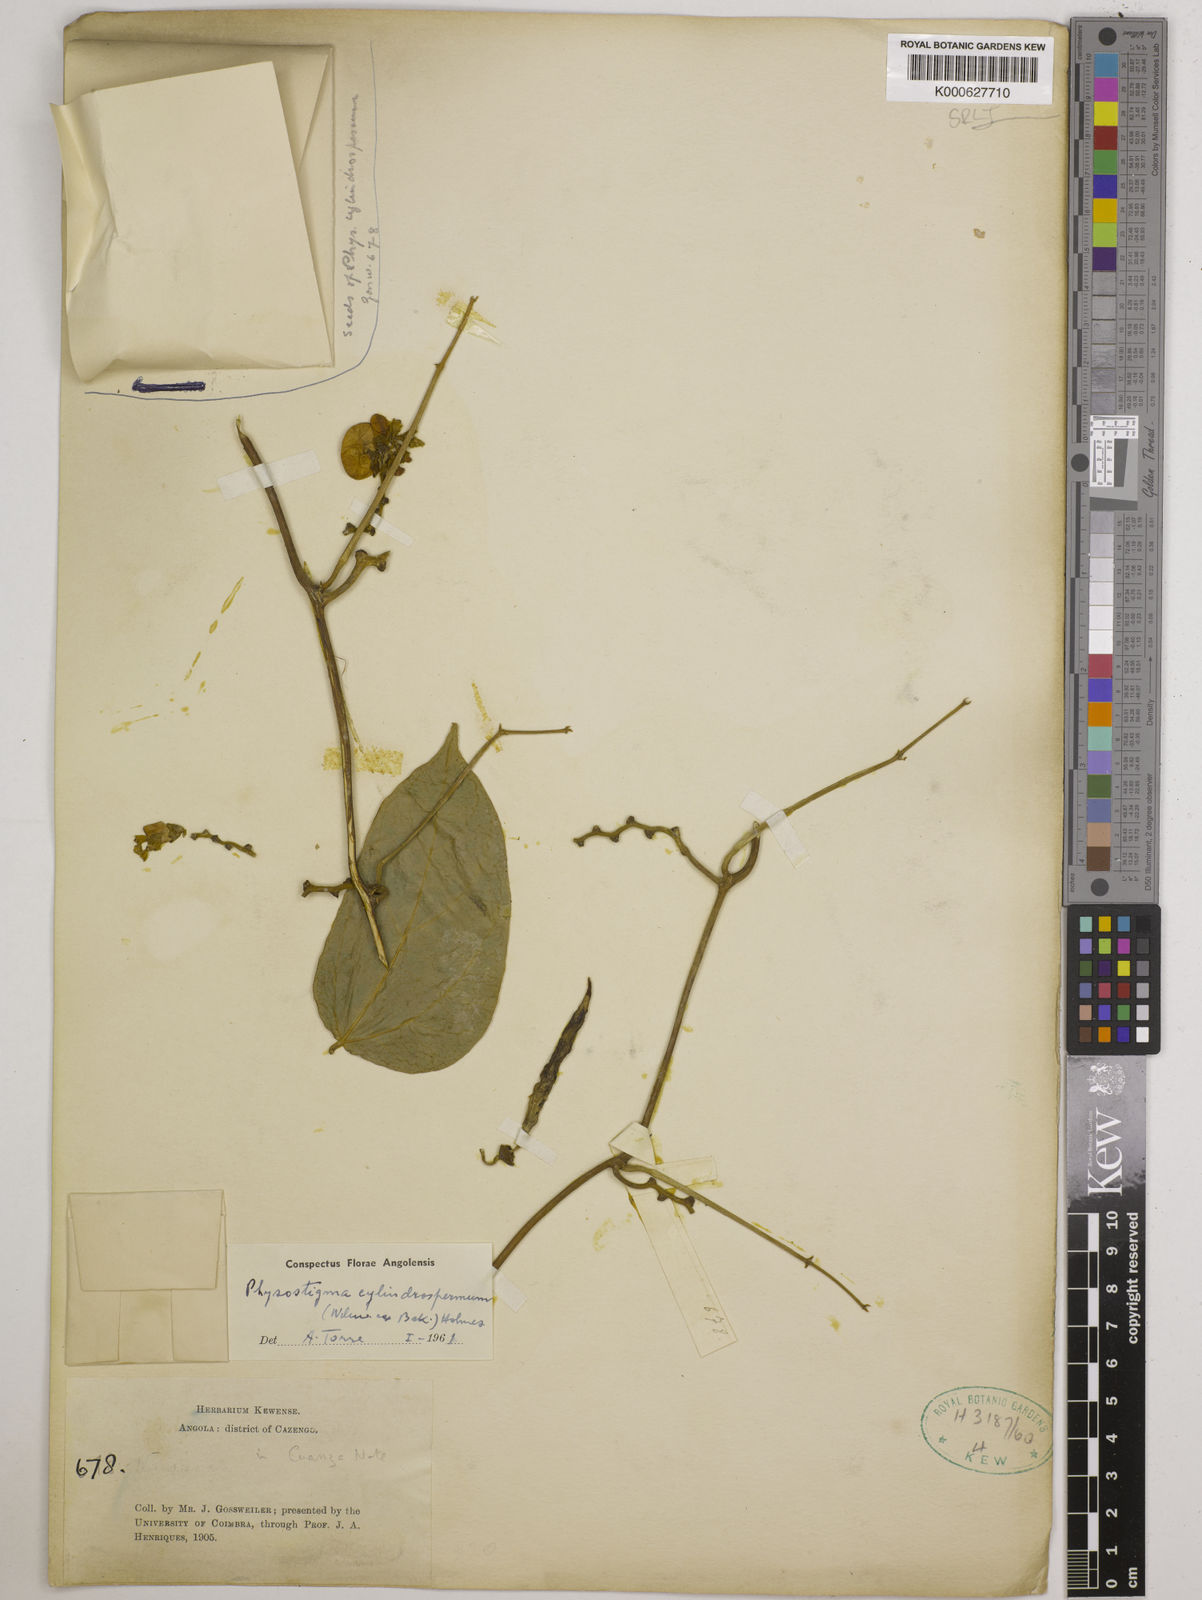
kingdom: Plantae
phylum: Tracheophyta
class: Magnoliopsida
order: Fabales
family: Fabaceae
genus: Physostigma
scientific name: Physostigma cylindrospermum
